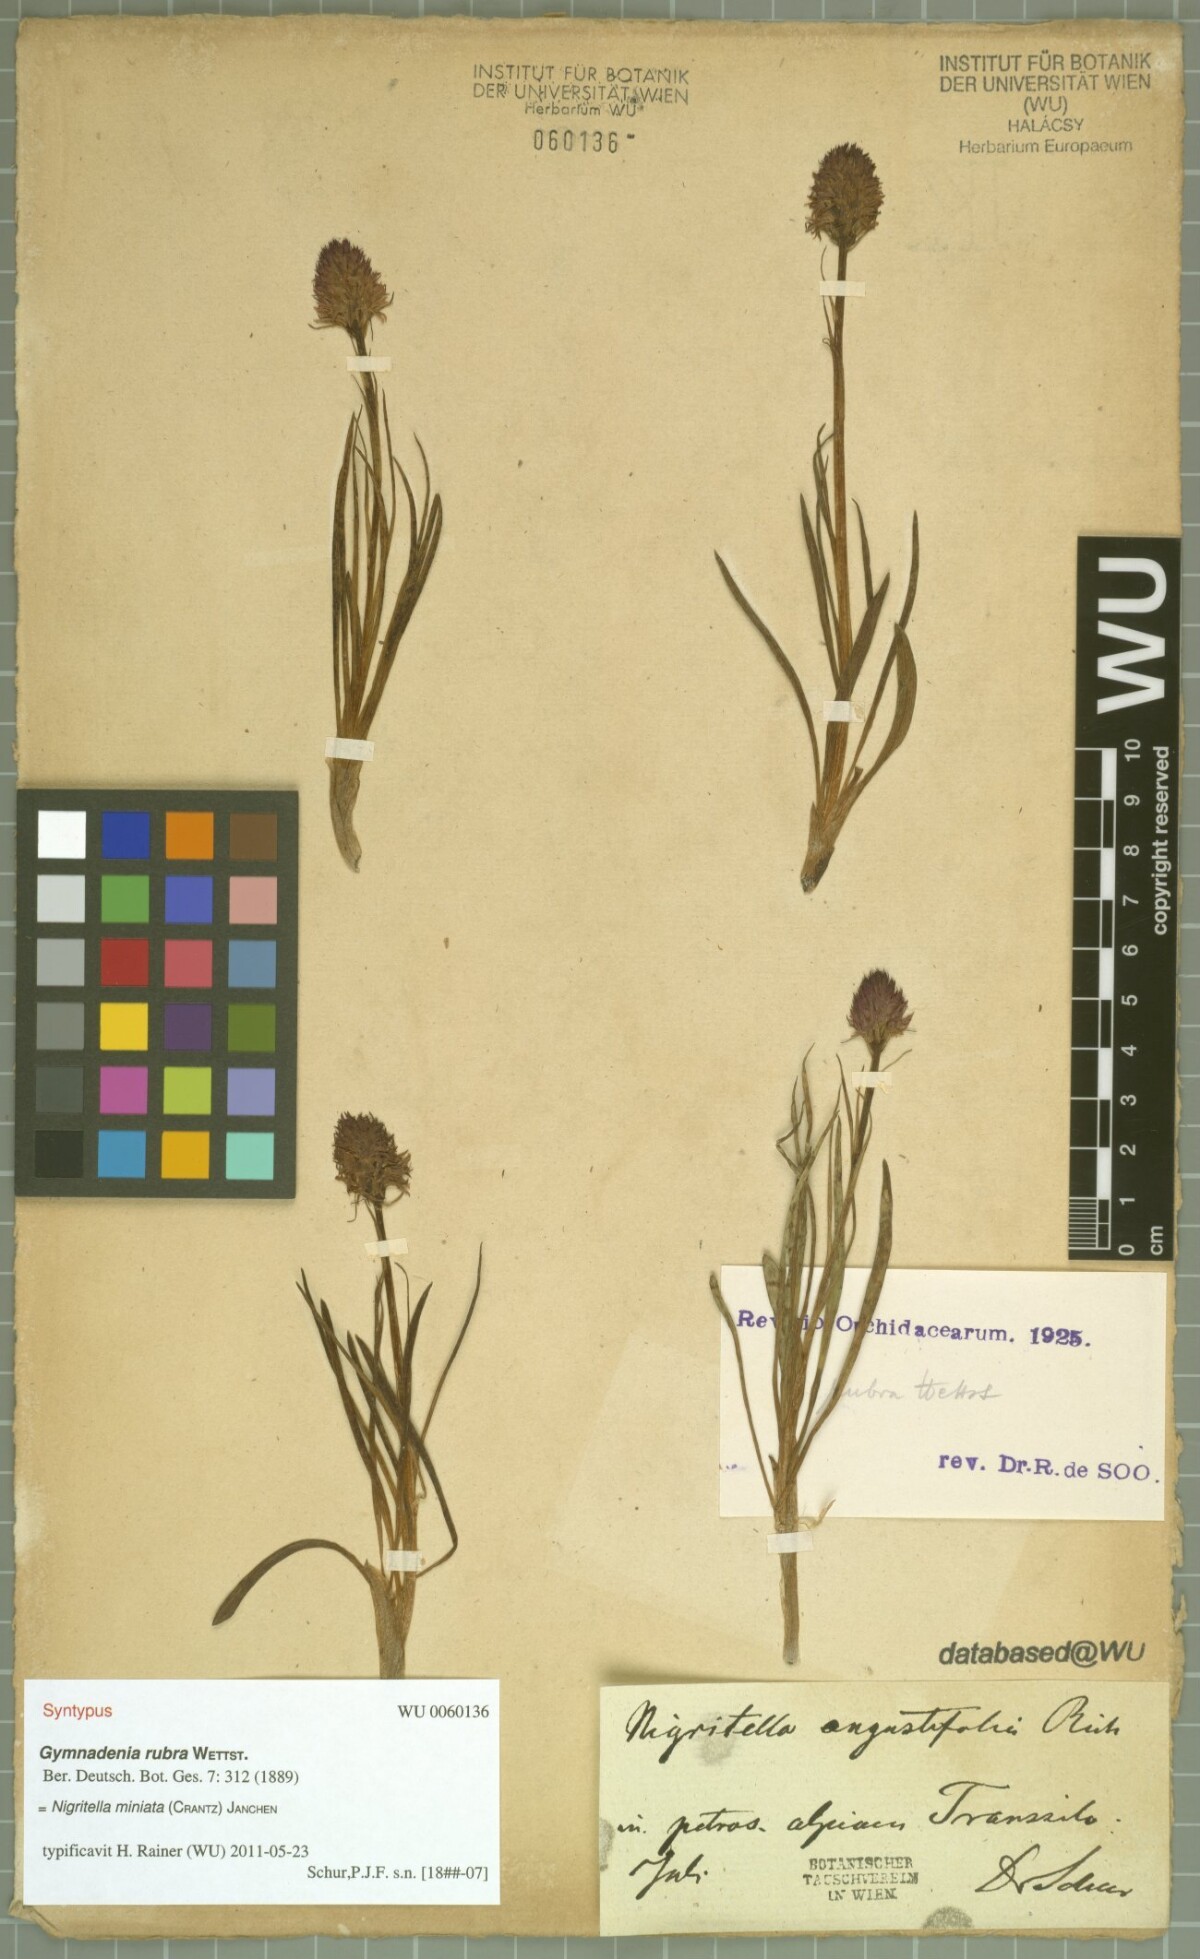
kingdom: Plantae
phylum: Tracheophyta
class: Liliopsida
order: Asparagales
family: Orchidaceae
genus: Gymnadenia
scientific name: Gymnadenia miniata
